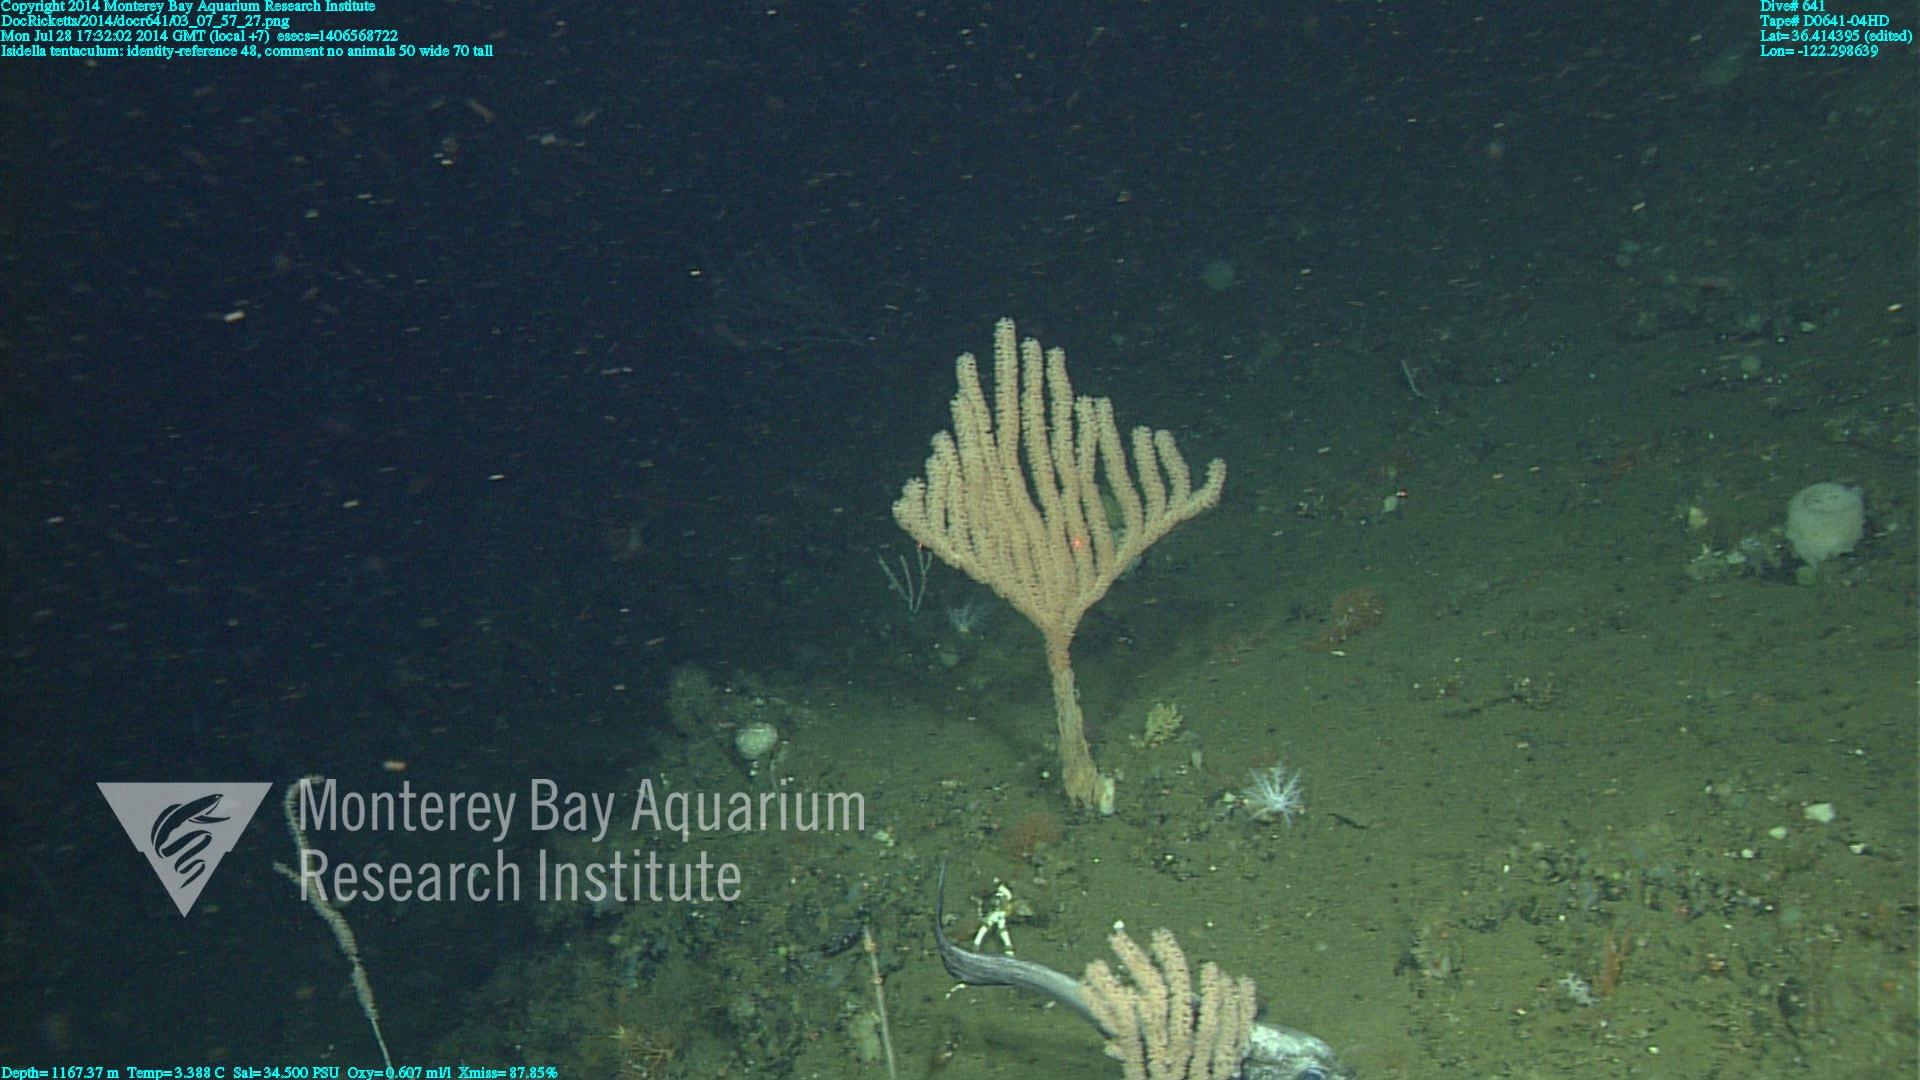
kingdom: Animalia
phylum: Cnidaria
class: Anthozoa
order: Scleralcyonacea
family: Keratoisididae
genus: Isidella
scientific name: Isidella tentaculum
